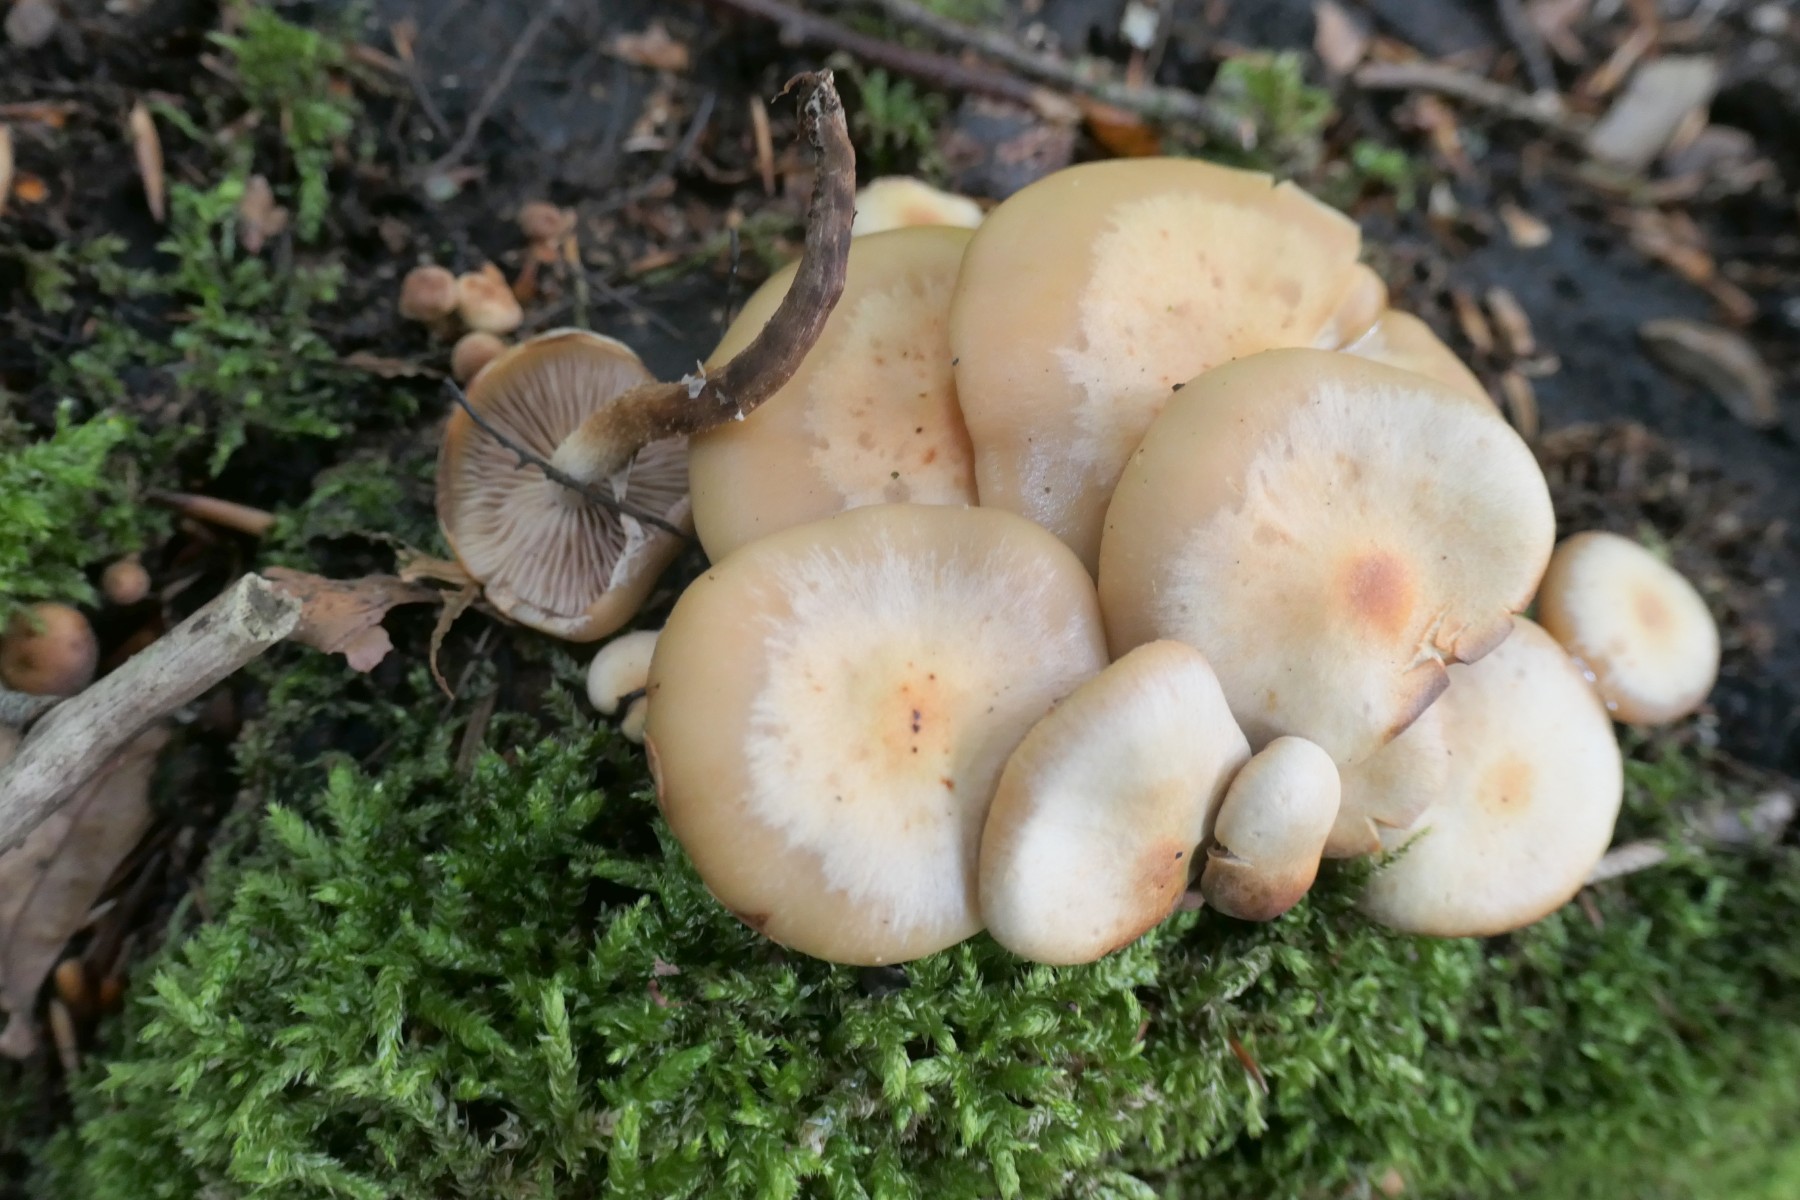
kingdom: Fungi
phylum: Basidiomycota
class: Agaricomycetes
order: Agaricales
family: Strophariaceae
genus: Kuehneromyces
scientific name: Kuehneromyces mutabilis
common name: foranderlig skælhat
